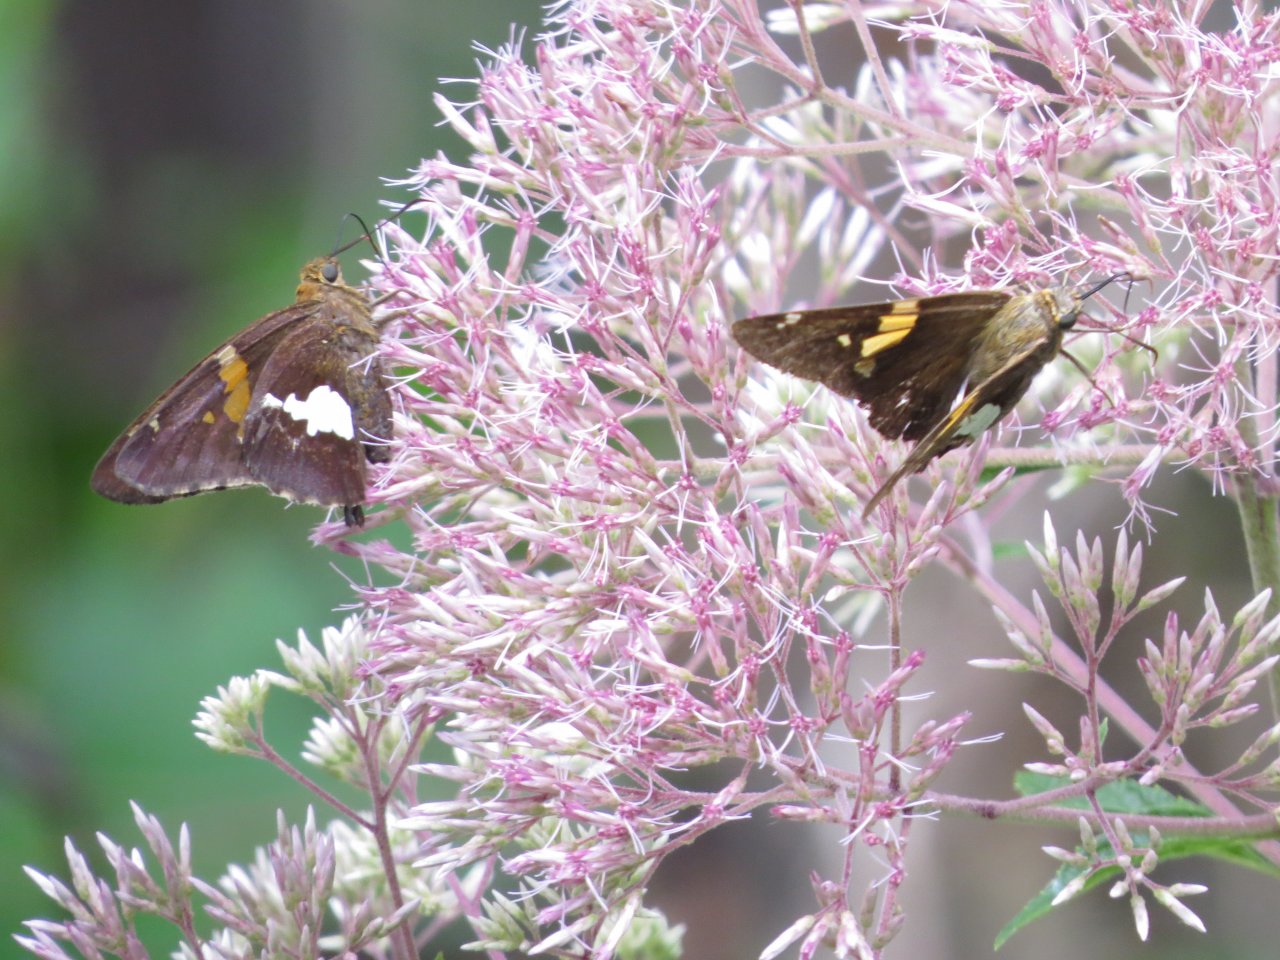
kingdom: Animalia
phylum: Arthropoda
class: Insecta
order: Lepidoptera
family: Hesperiidae
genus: Epargyreus
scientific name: Epargyreus clarus
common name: Silver-spotted Skipper
